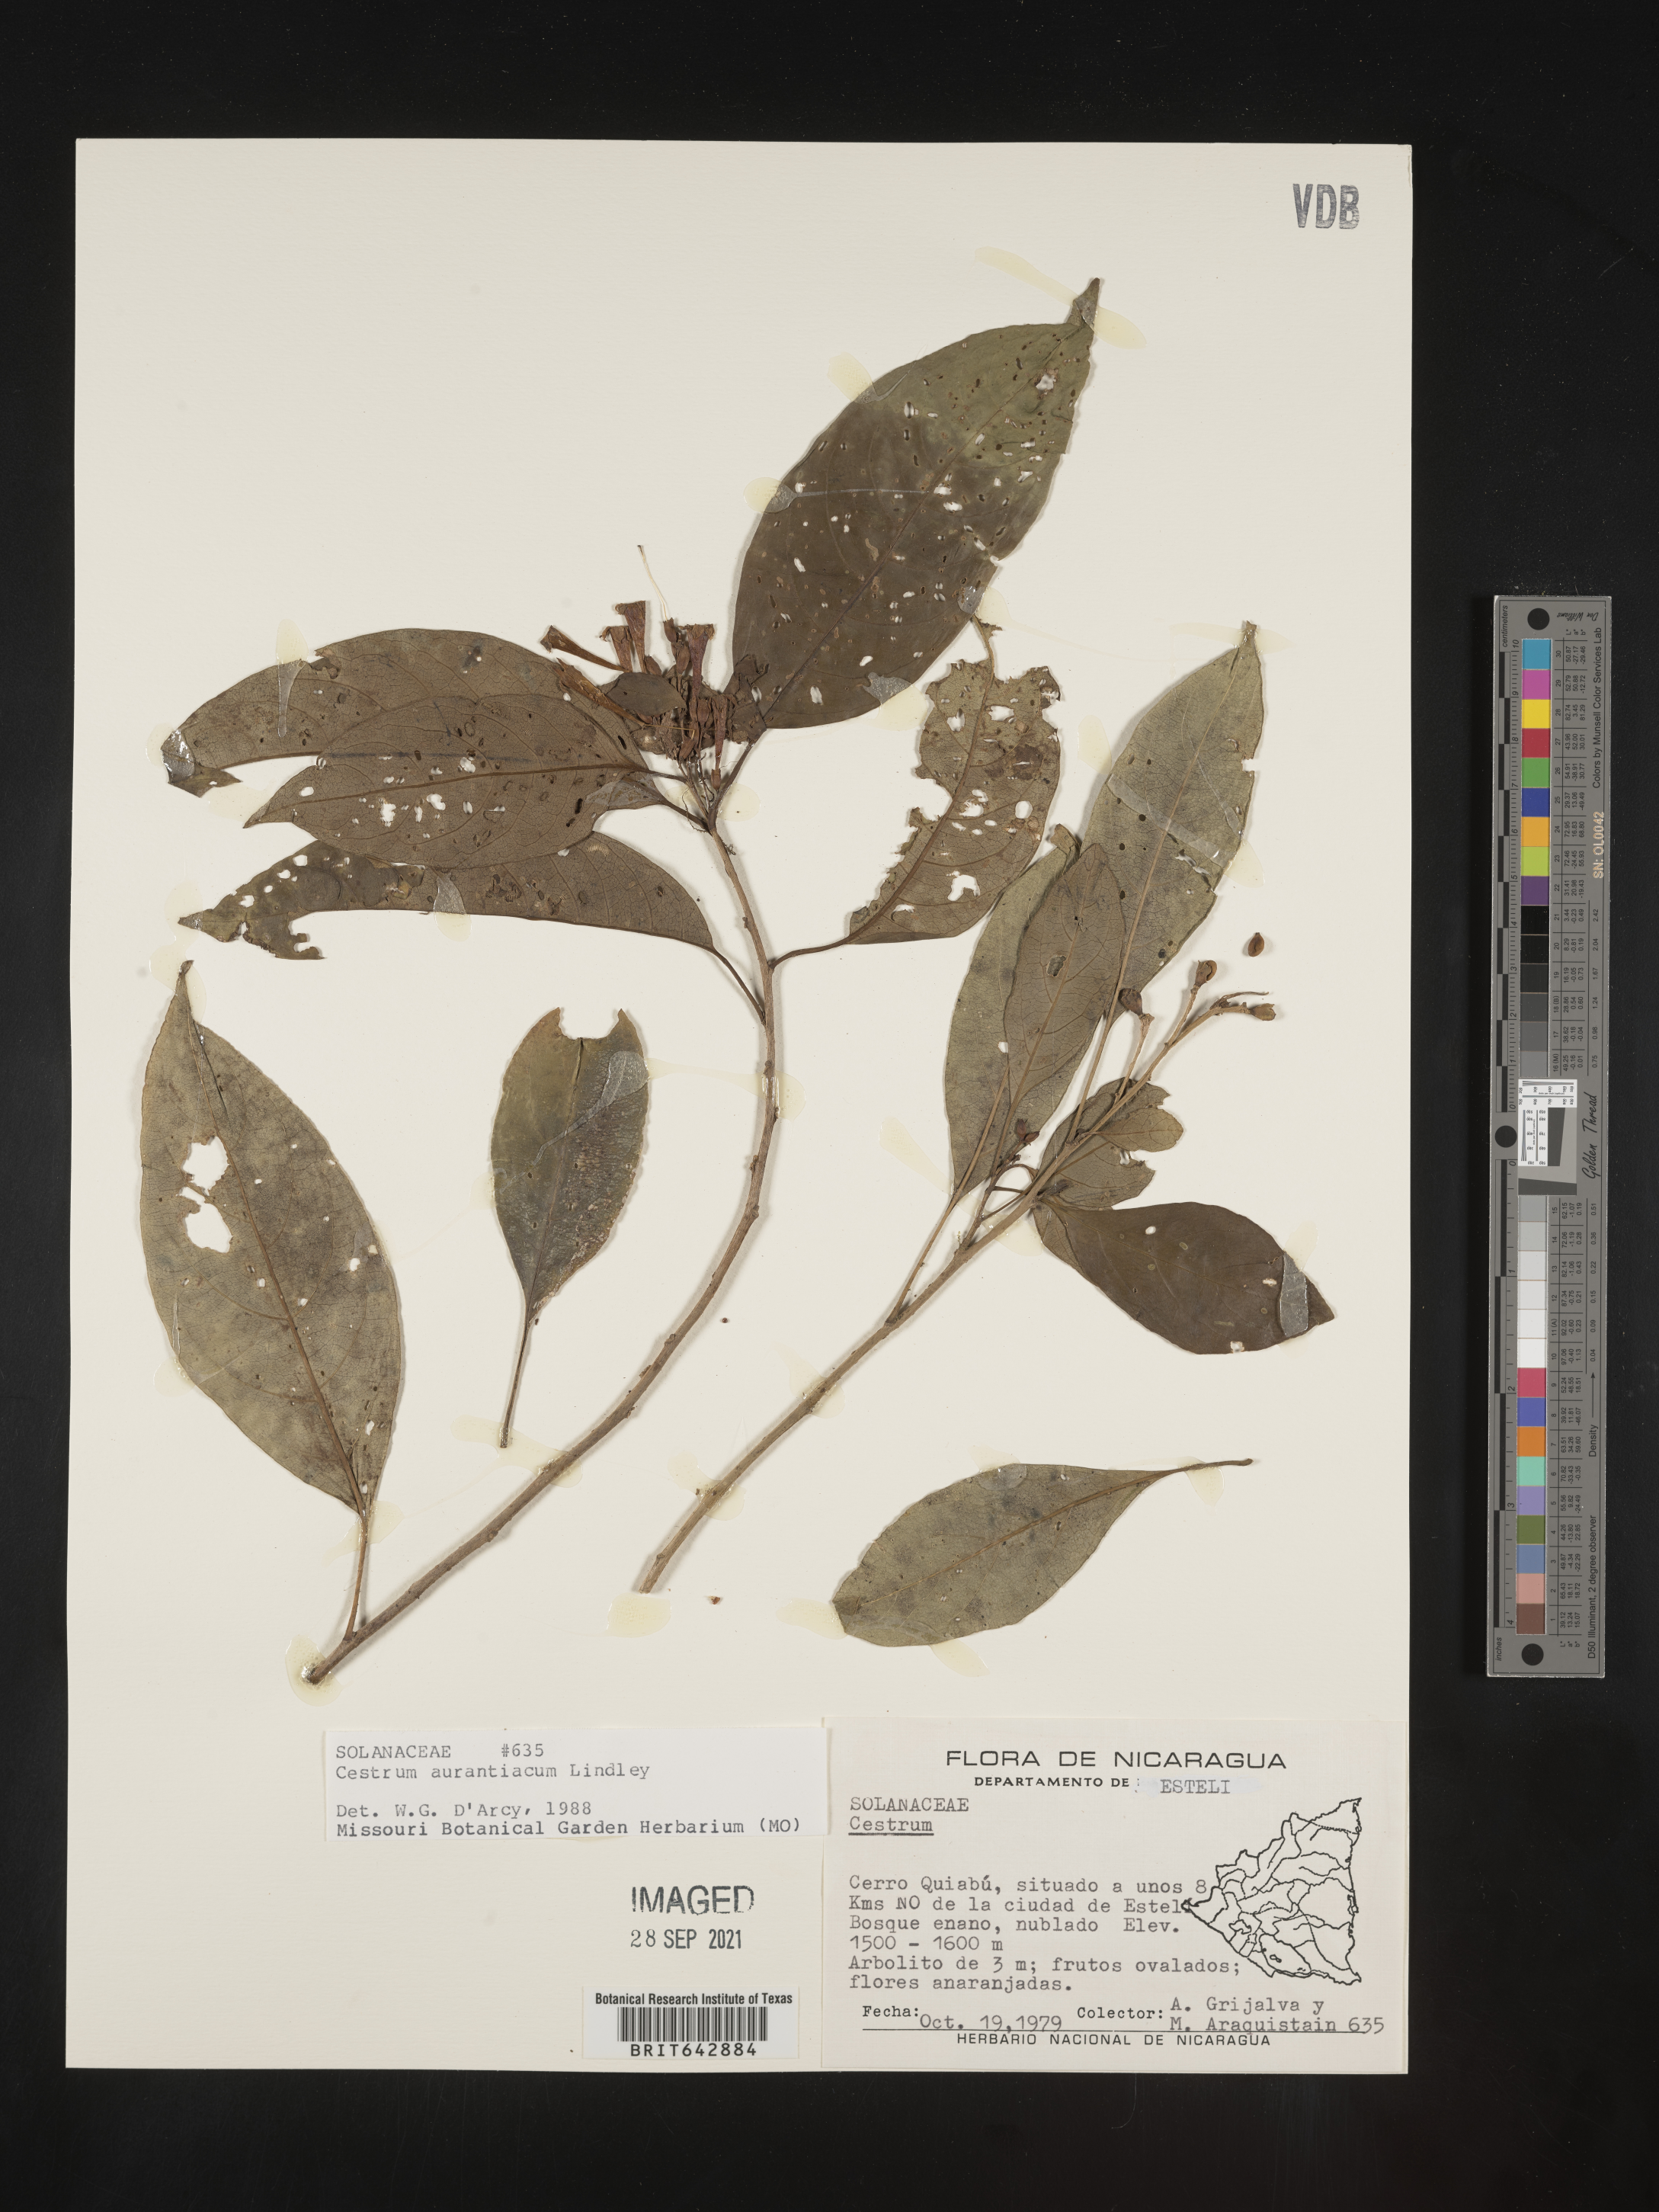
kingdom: Plantae
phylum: Tracheophyta
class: Magnoliopsida
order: Solanales
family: Solanaceae
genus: Cestrum
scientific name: Cestrum
